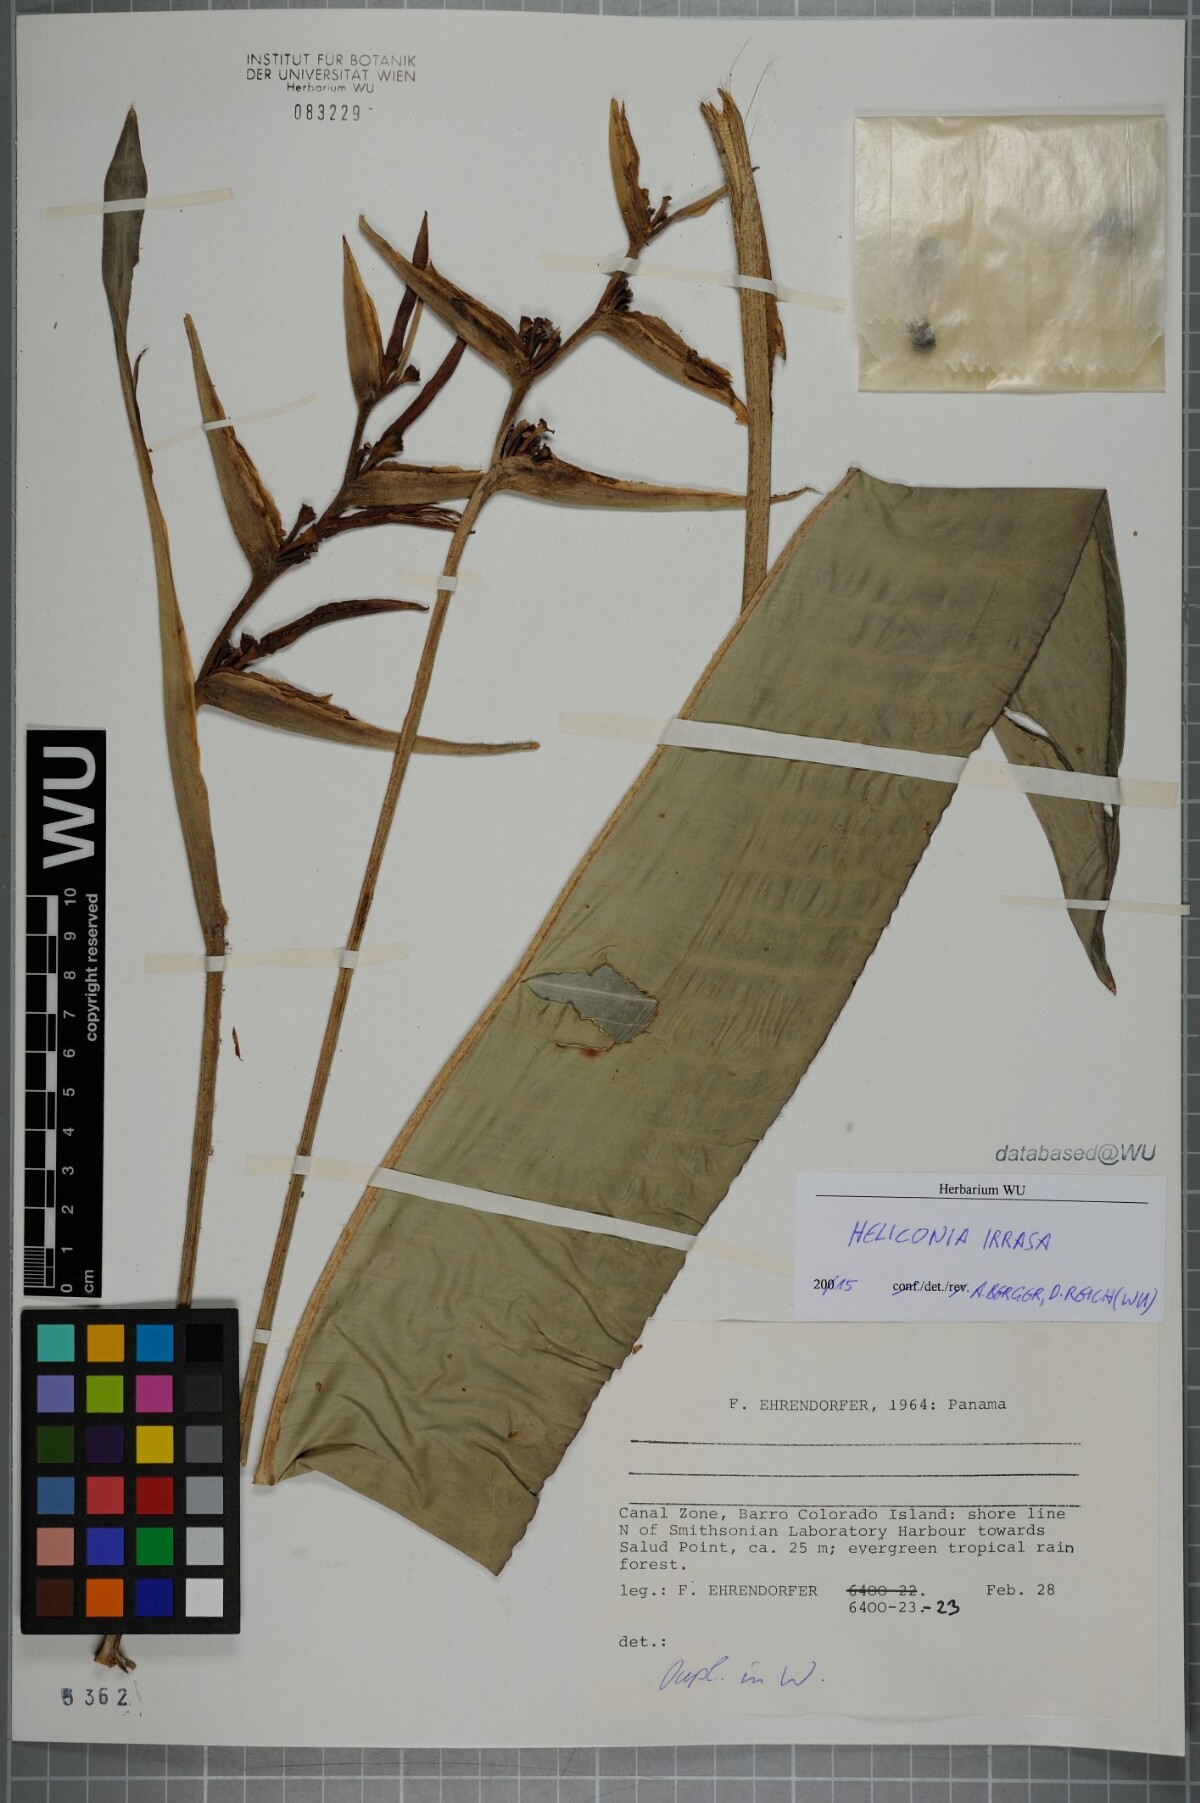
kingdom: Plantae
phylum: Tracheophyta
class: Liliopsida
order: Zingiberales
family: Heliconiaceae
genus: Heliconia
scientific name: Heliconia irrasa
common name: Wild plantain
